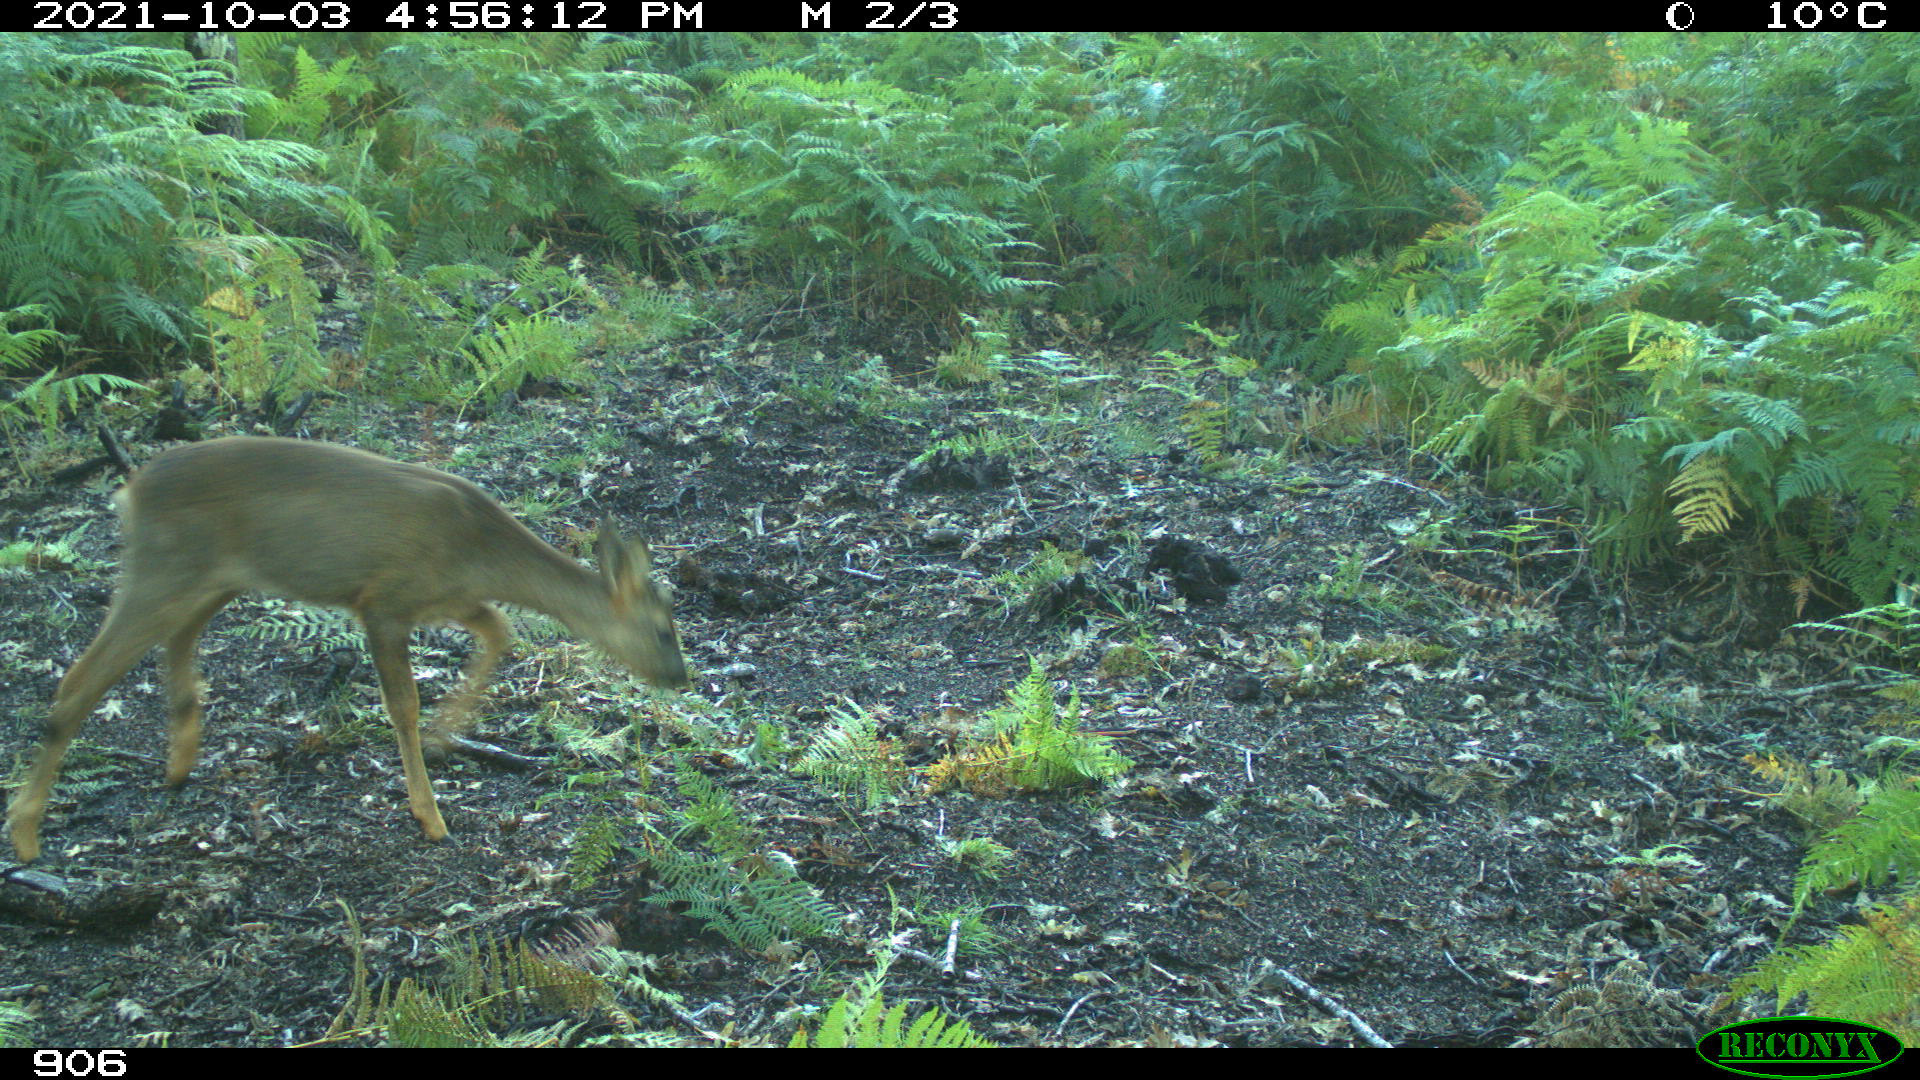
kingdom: Animalia
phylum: Chordata
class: Mammalia
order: Artiodactyla
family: Cervidae
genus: Capreolus
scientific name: Capreolus capreolus
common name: Western roe deer
